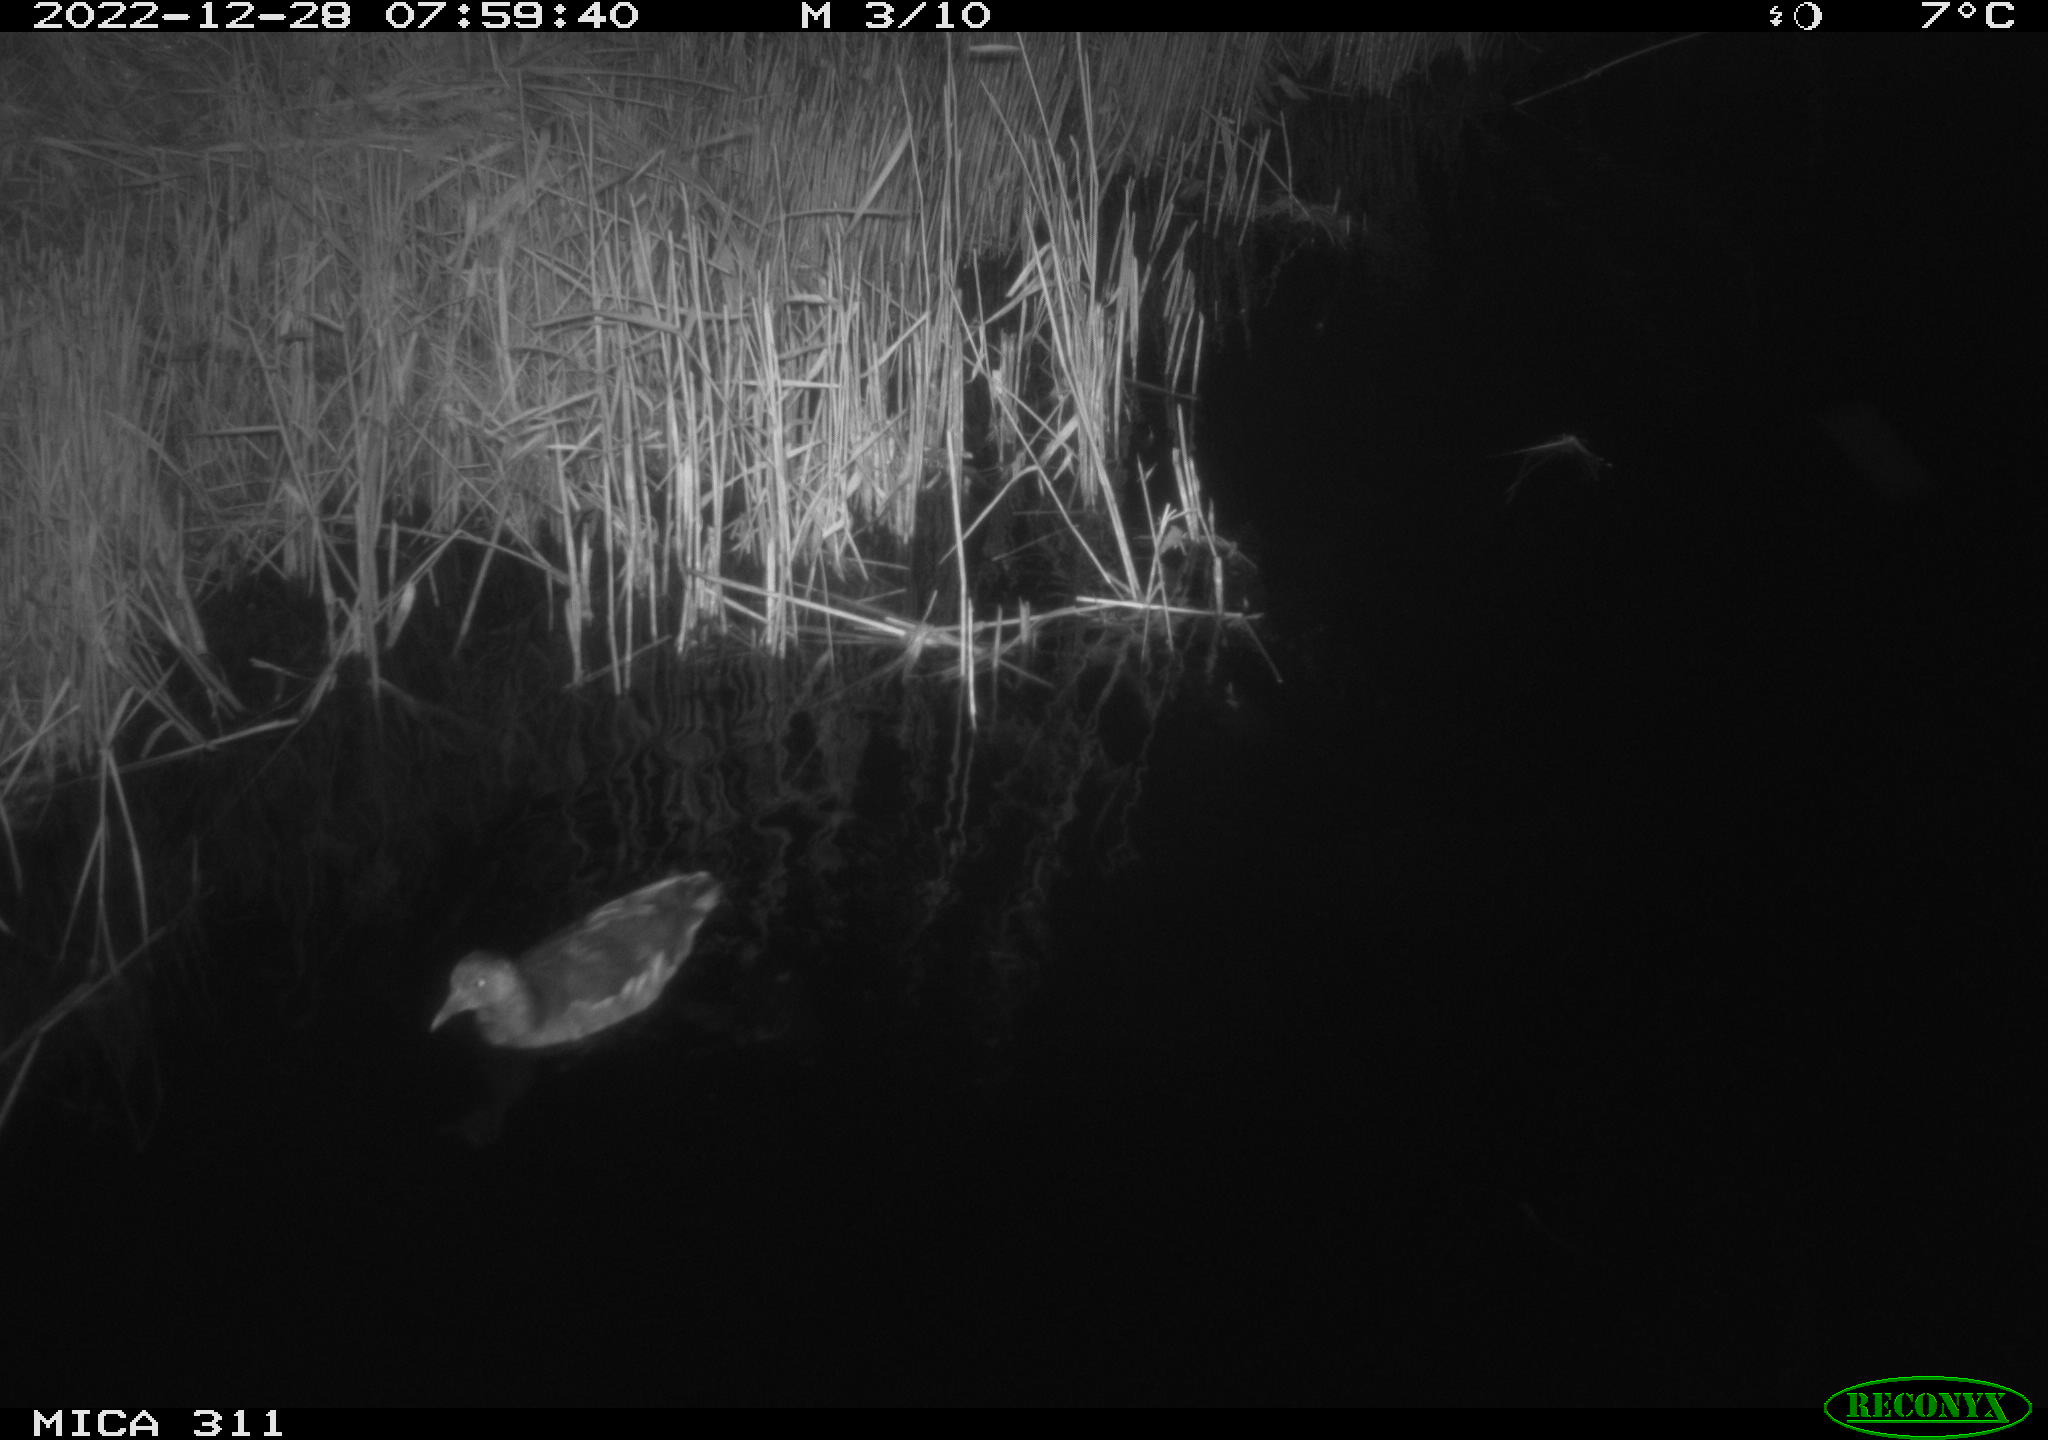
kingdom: Animalia
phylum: Chordata
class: Aves
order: Gruiformes
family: Rallidae
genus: Gallinula
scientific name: Gallinula chloropus
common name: Common moorhen
